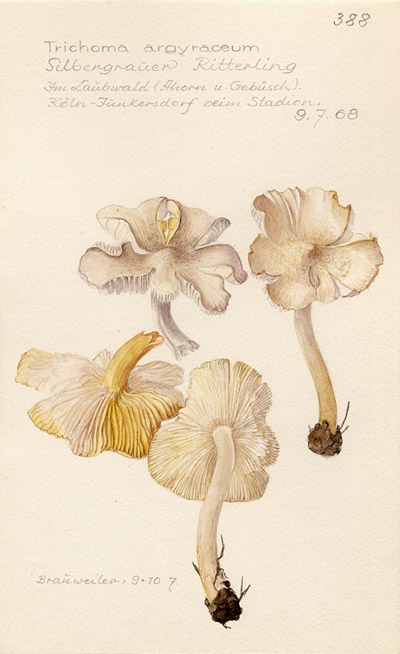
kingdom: Fungi
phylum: Basidiomycota
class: Agaricomycetes
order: Agaricales
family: Tricholomataceae
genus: Tricholoma
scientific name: Tricholoma argyraceum
